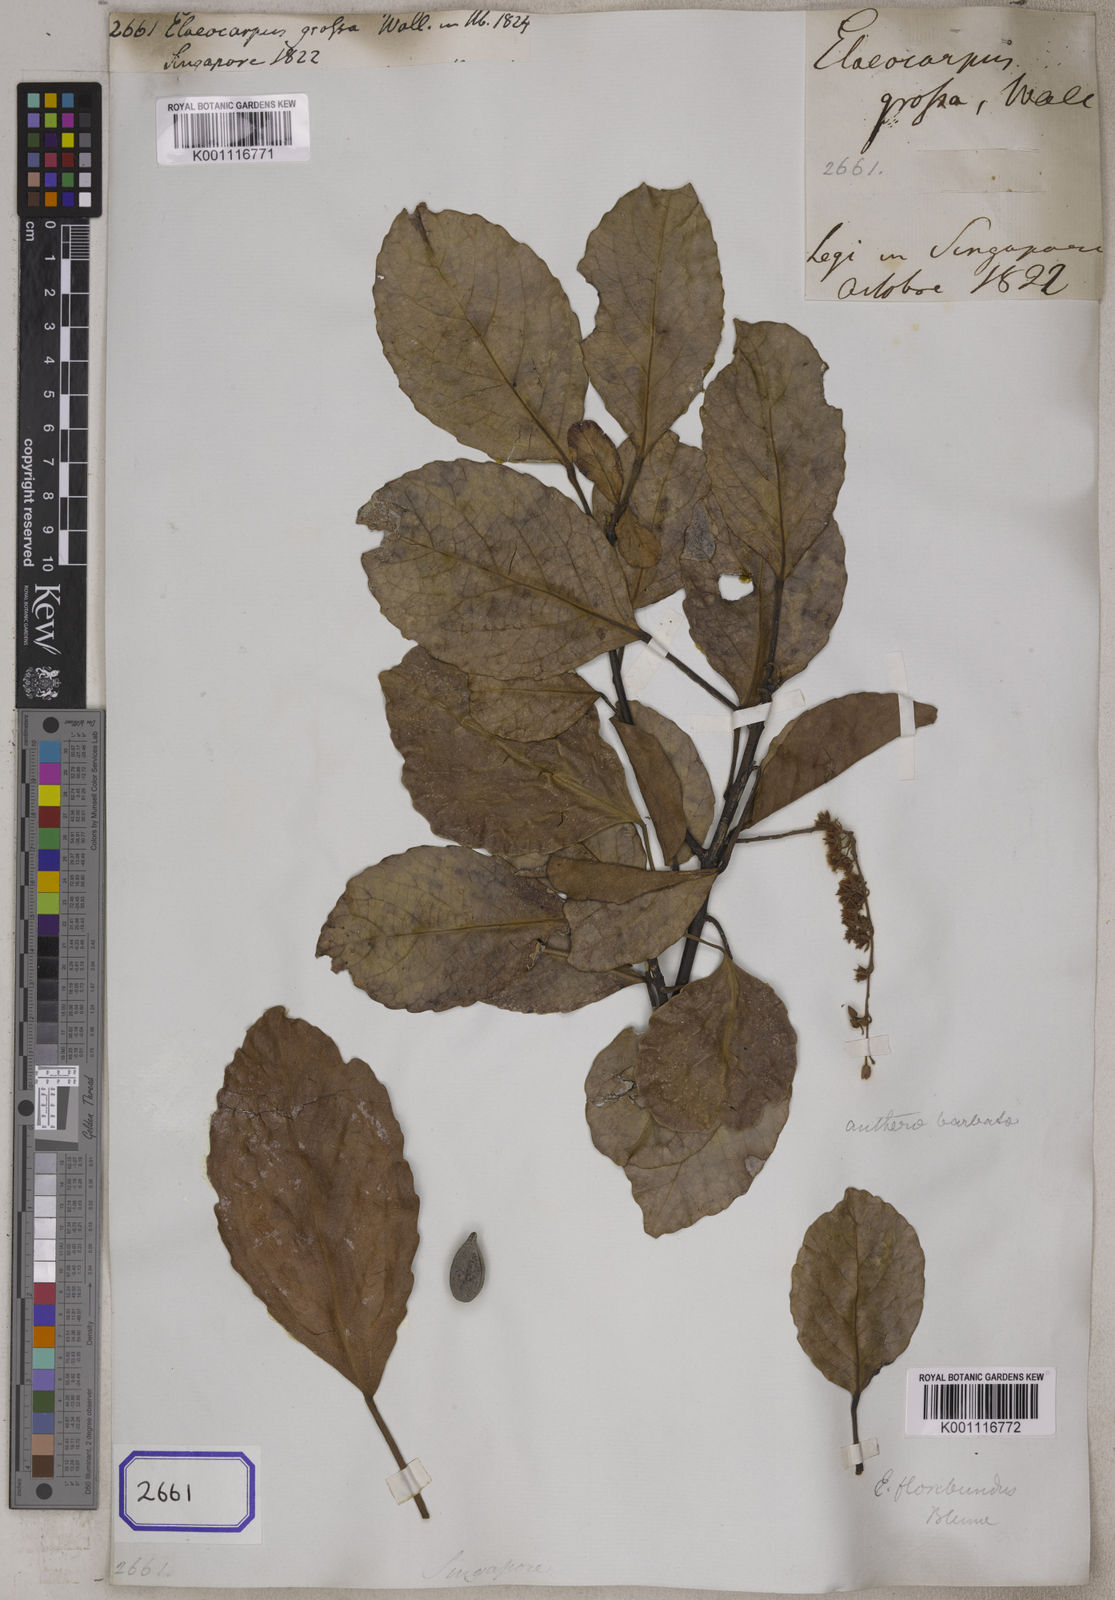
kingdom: Plantae
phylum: Tracheophyta
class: Magnoliopsida
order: Oxalidales
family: Elaeocarpaceae
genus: Elaeocarpus
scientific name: Elaeocarpus floribundus
